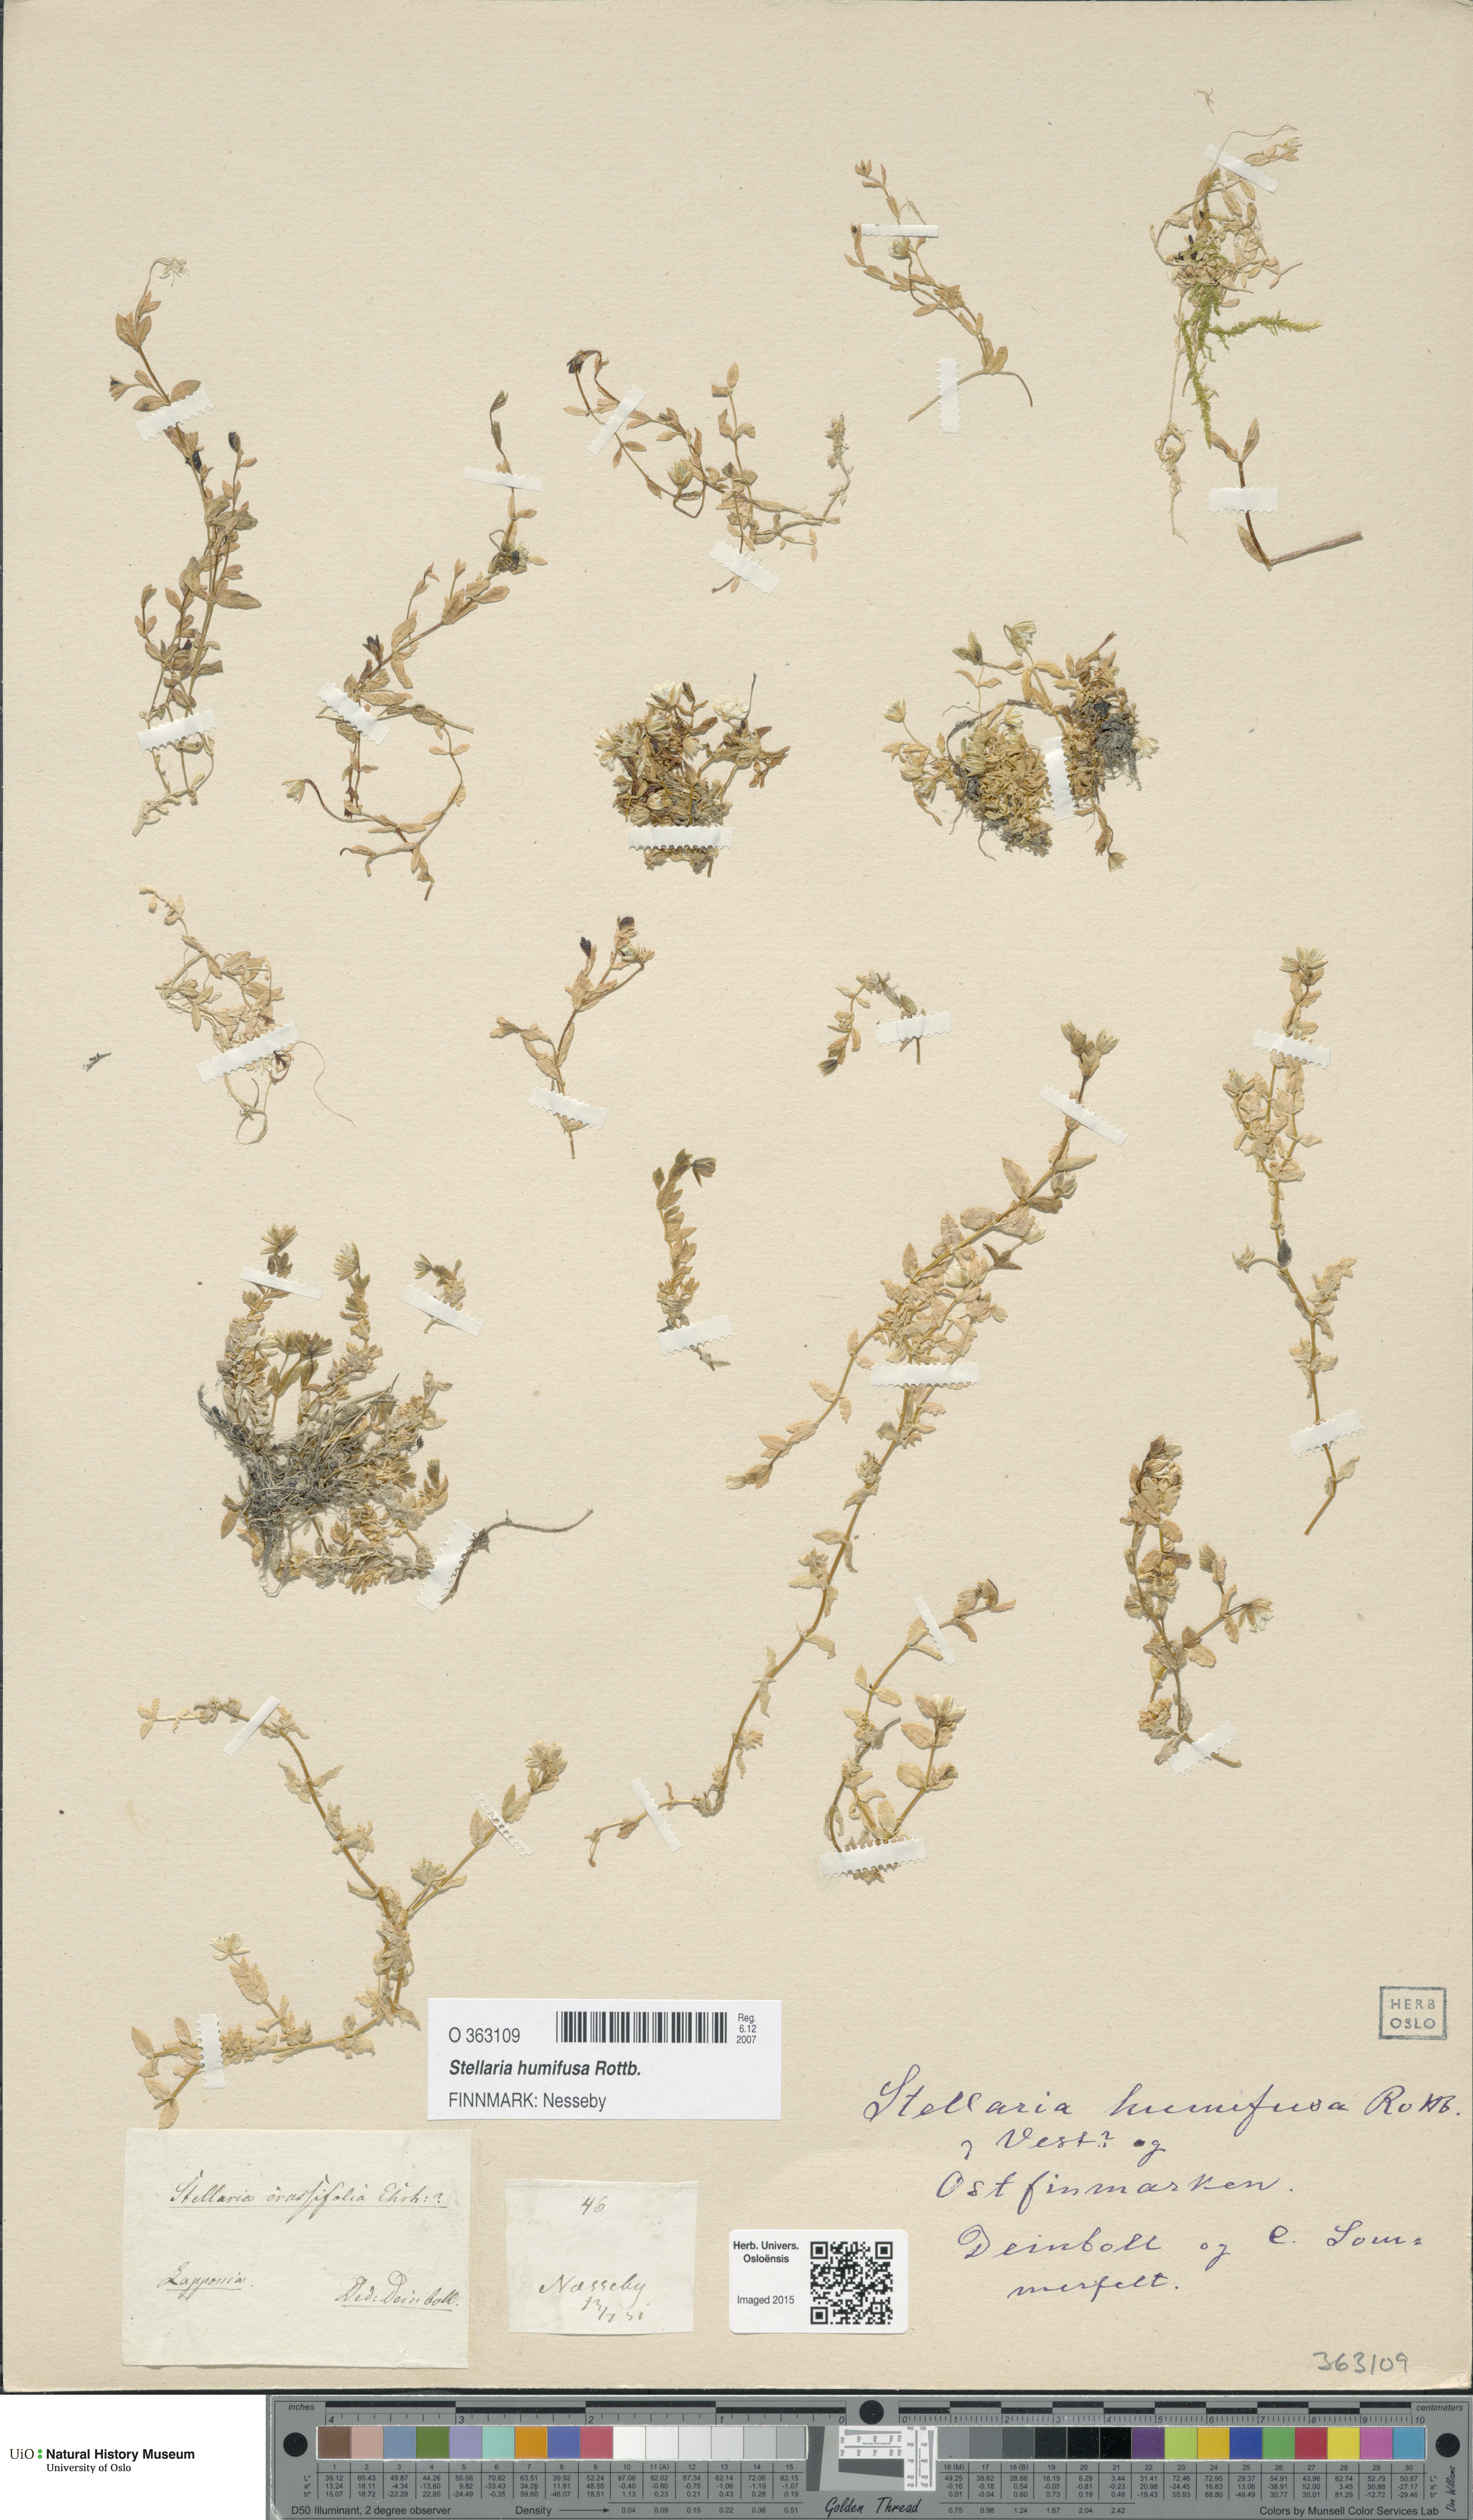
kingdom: Plantae
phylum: Tracheophyta
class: Magnoliopsida
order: Caryophyllales
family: Caryophyllaceae
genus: Stellaria
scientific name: Stellaria humifusa
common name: Creeping starwort
